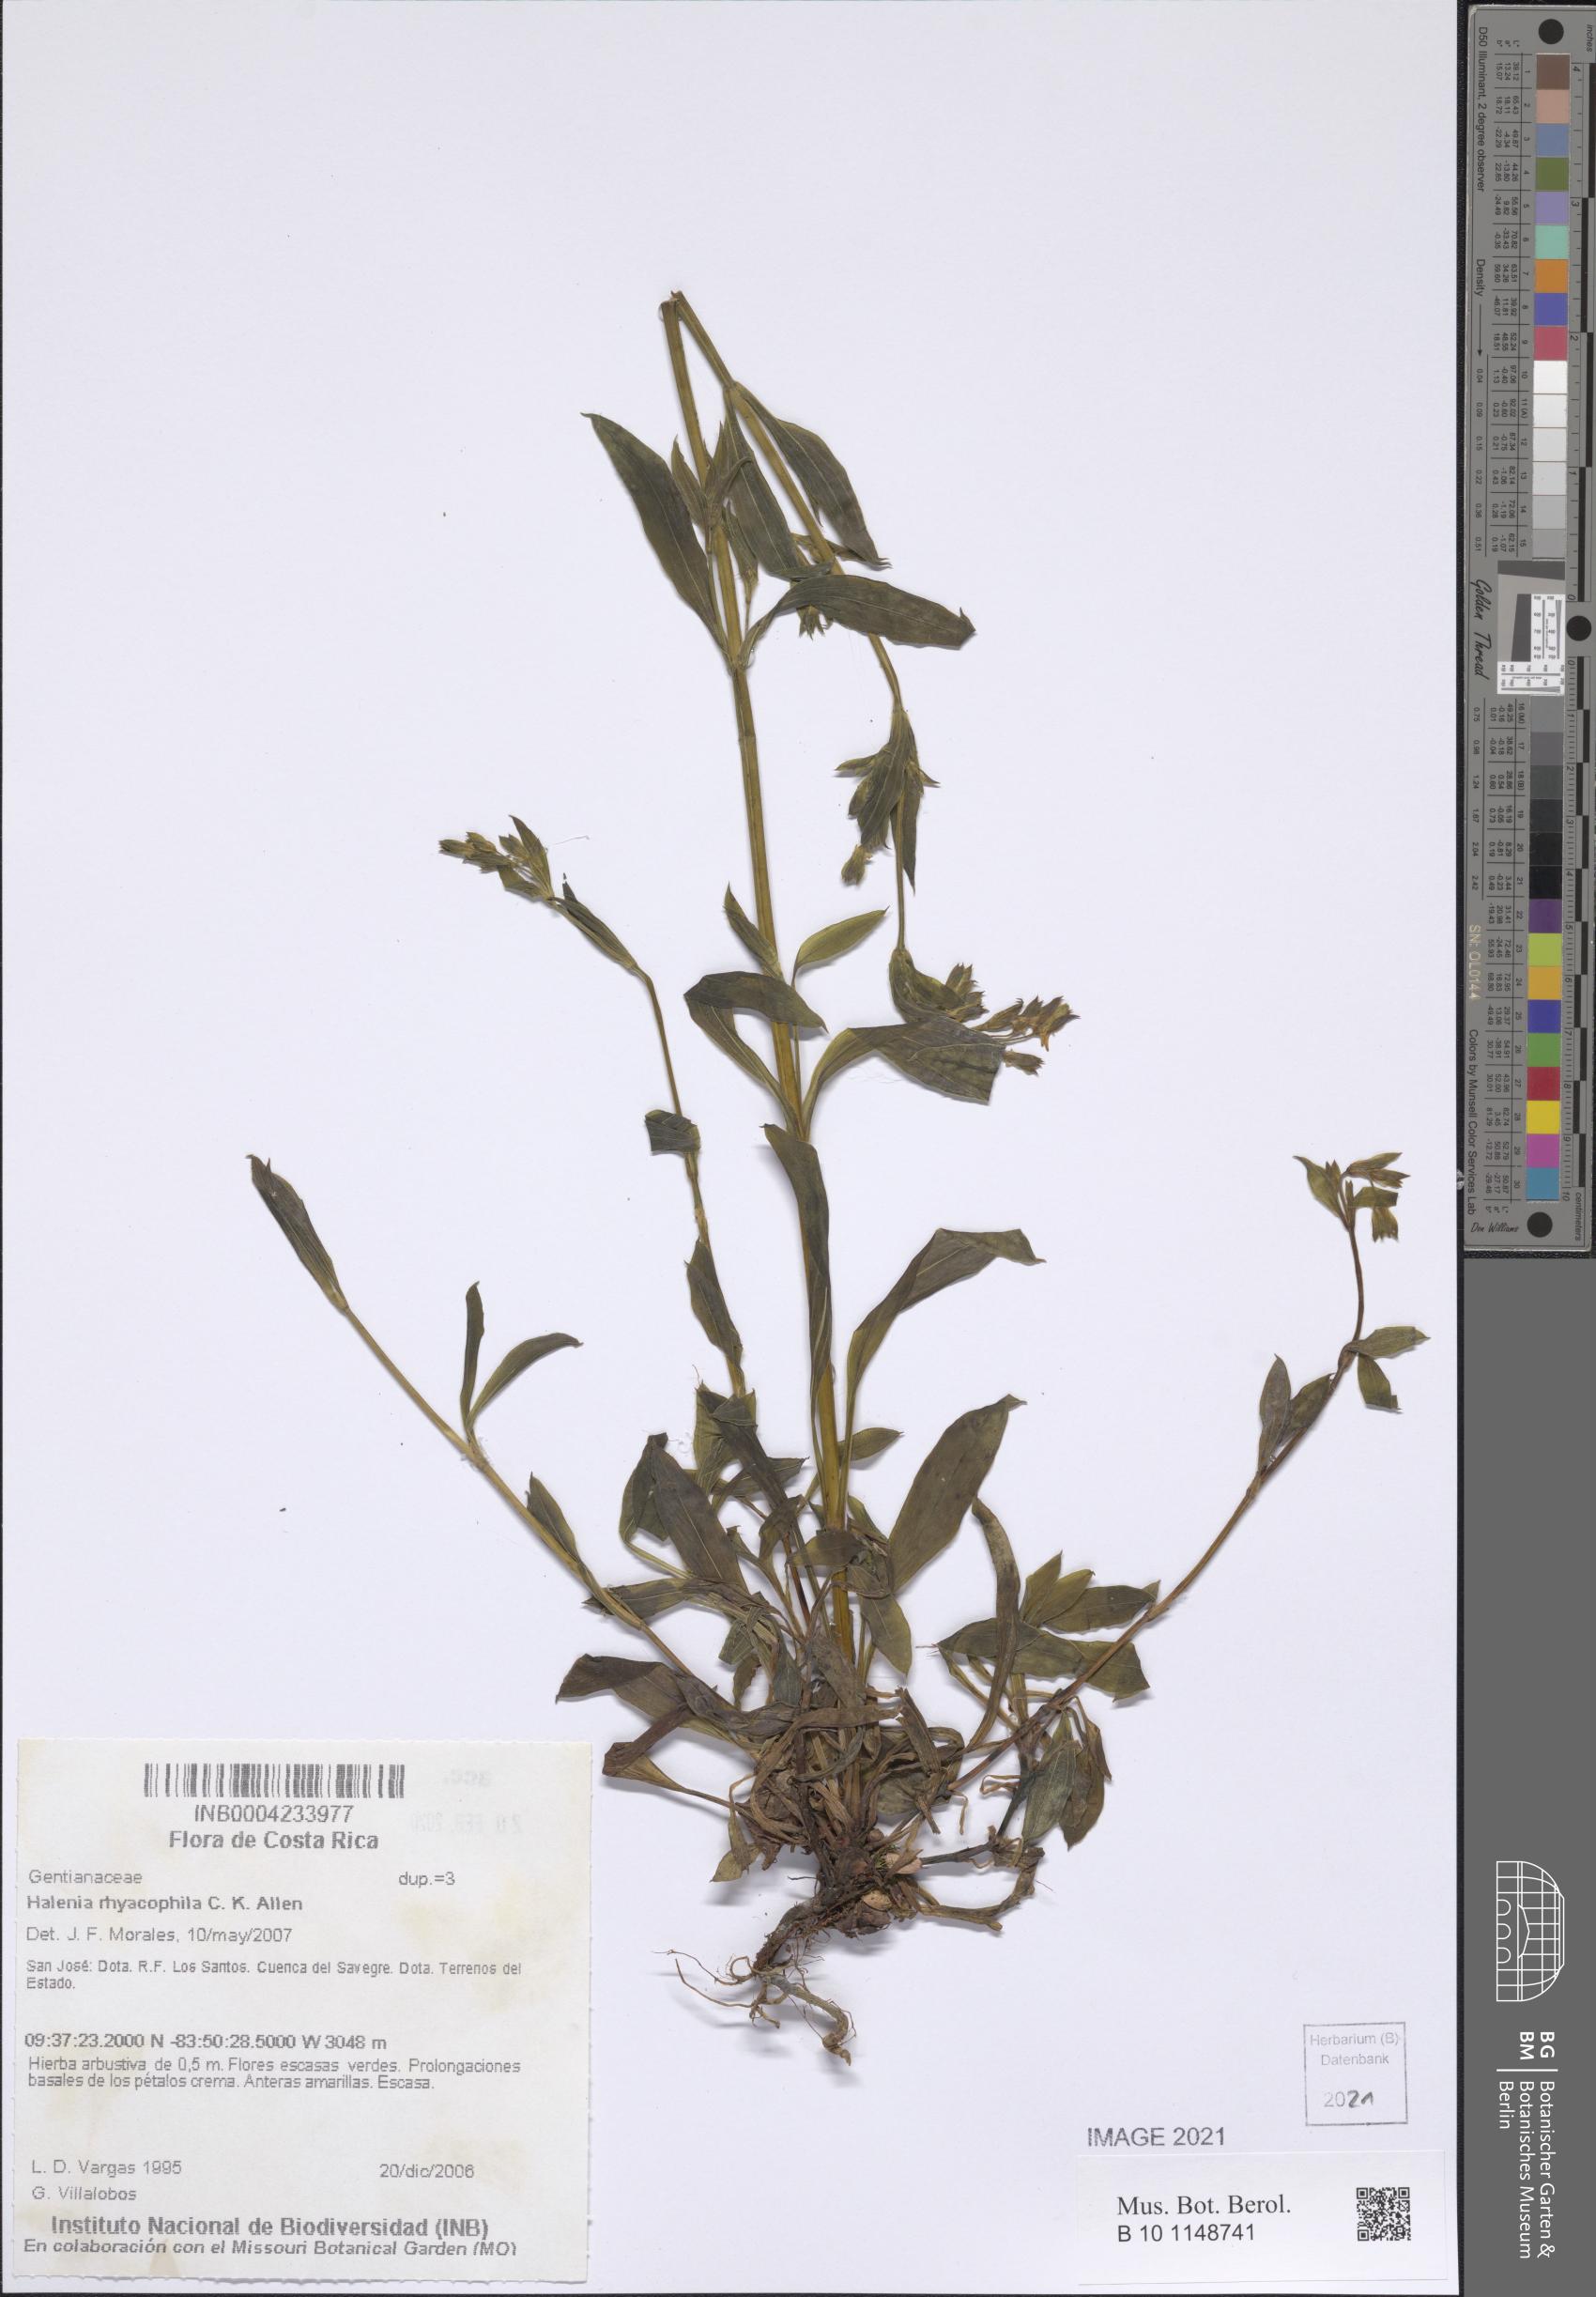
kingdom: Plantae
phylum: Tracheophyta
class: Magnoliopsida
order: Gentianales
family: Gentianaceae
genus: Halenia
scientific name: Halenia rhyacophila
